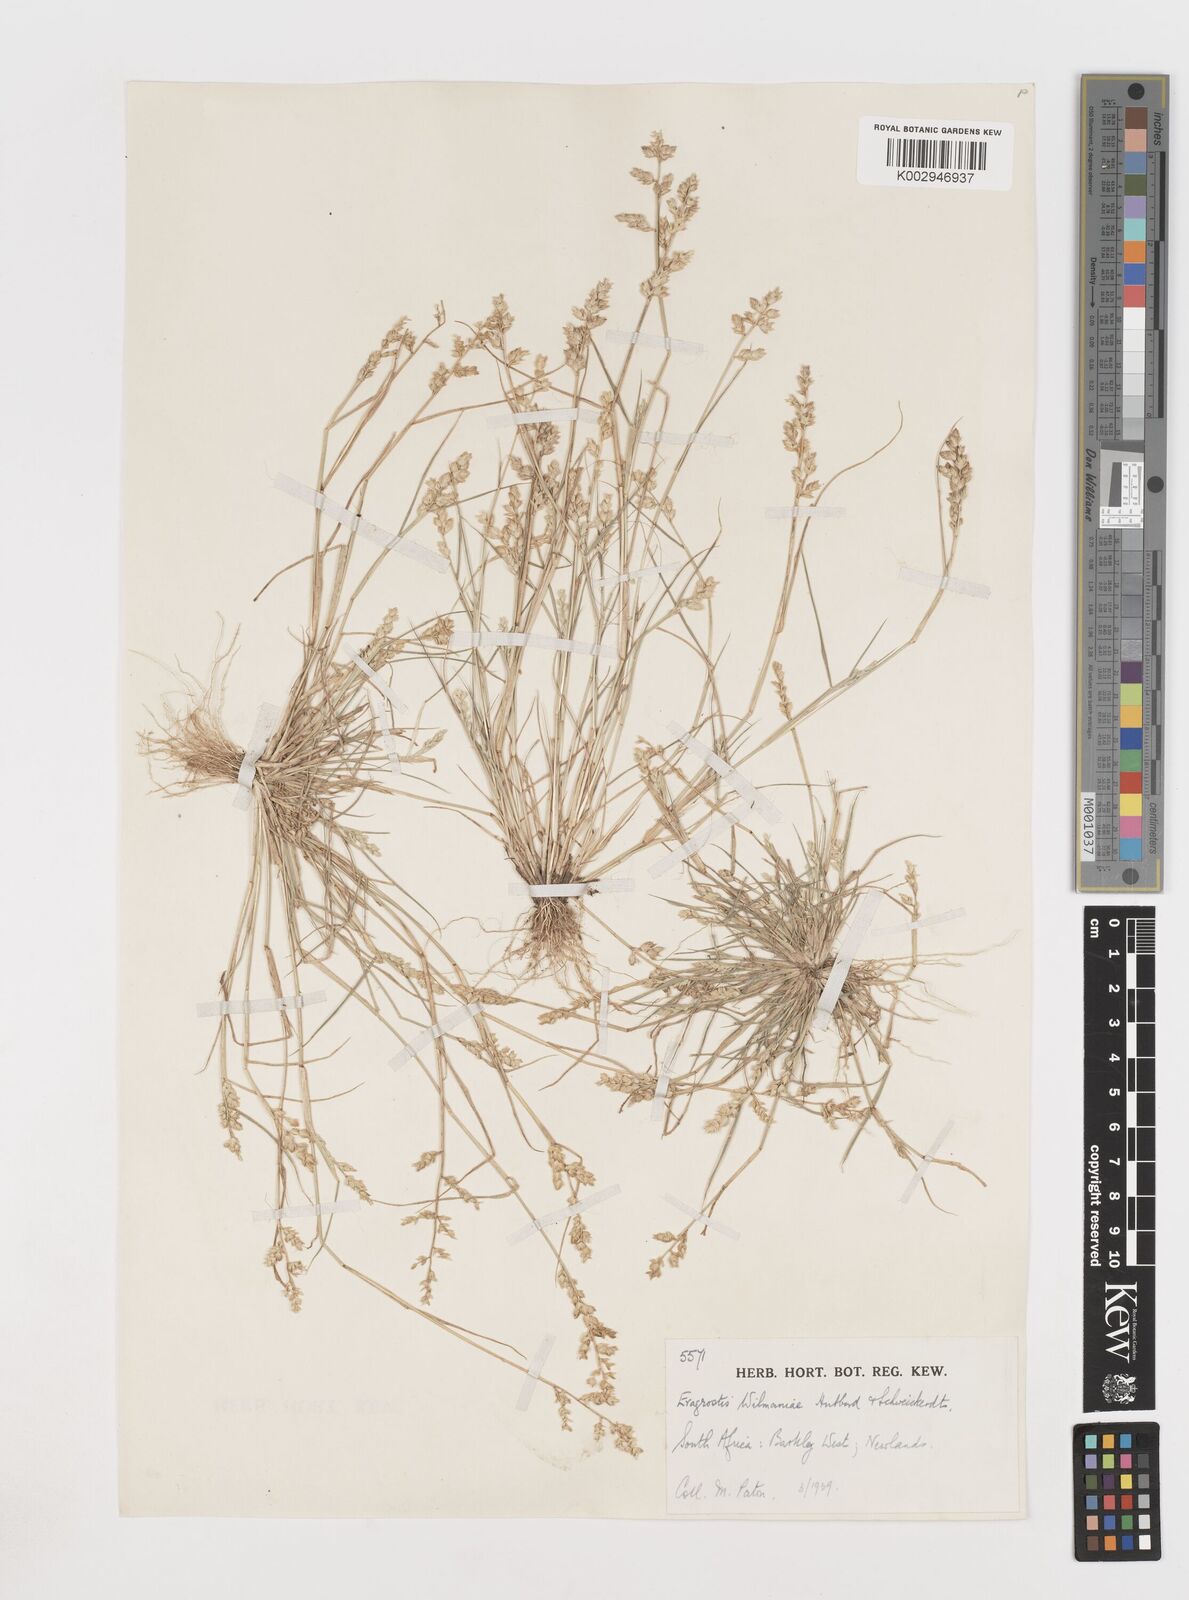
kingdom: Plantae
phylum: Tracheophyta
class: Liliopsida
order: Poales
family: Poaceae
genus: Eragrostis
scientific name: Eragrostis macrochlamys
